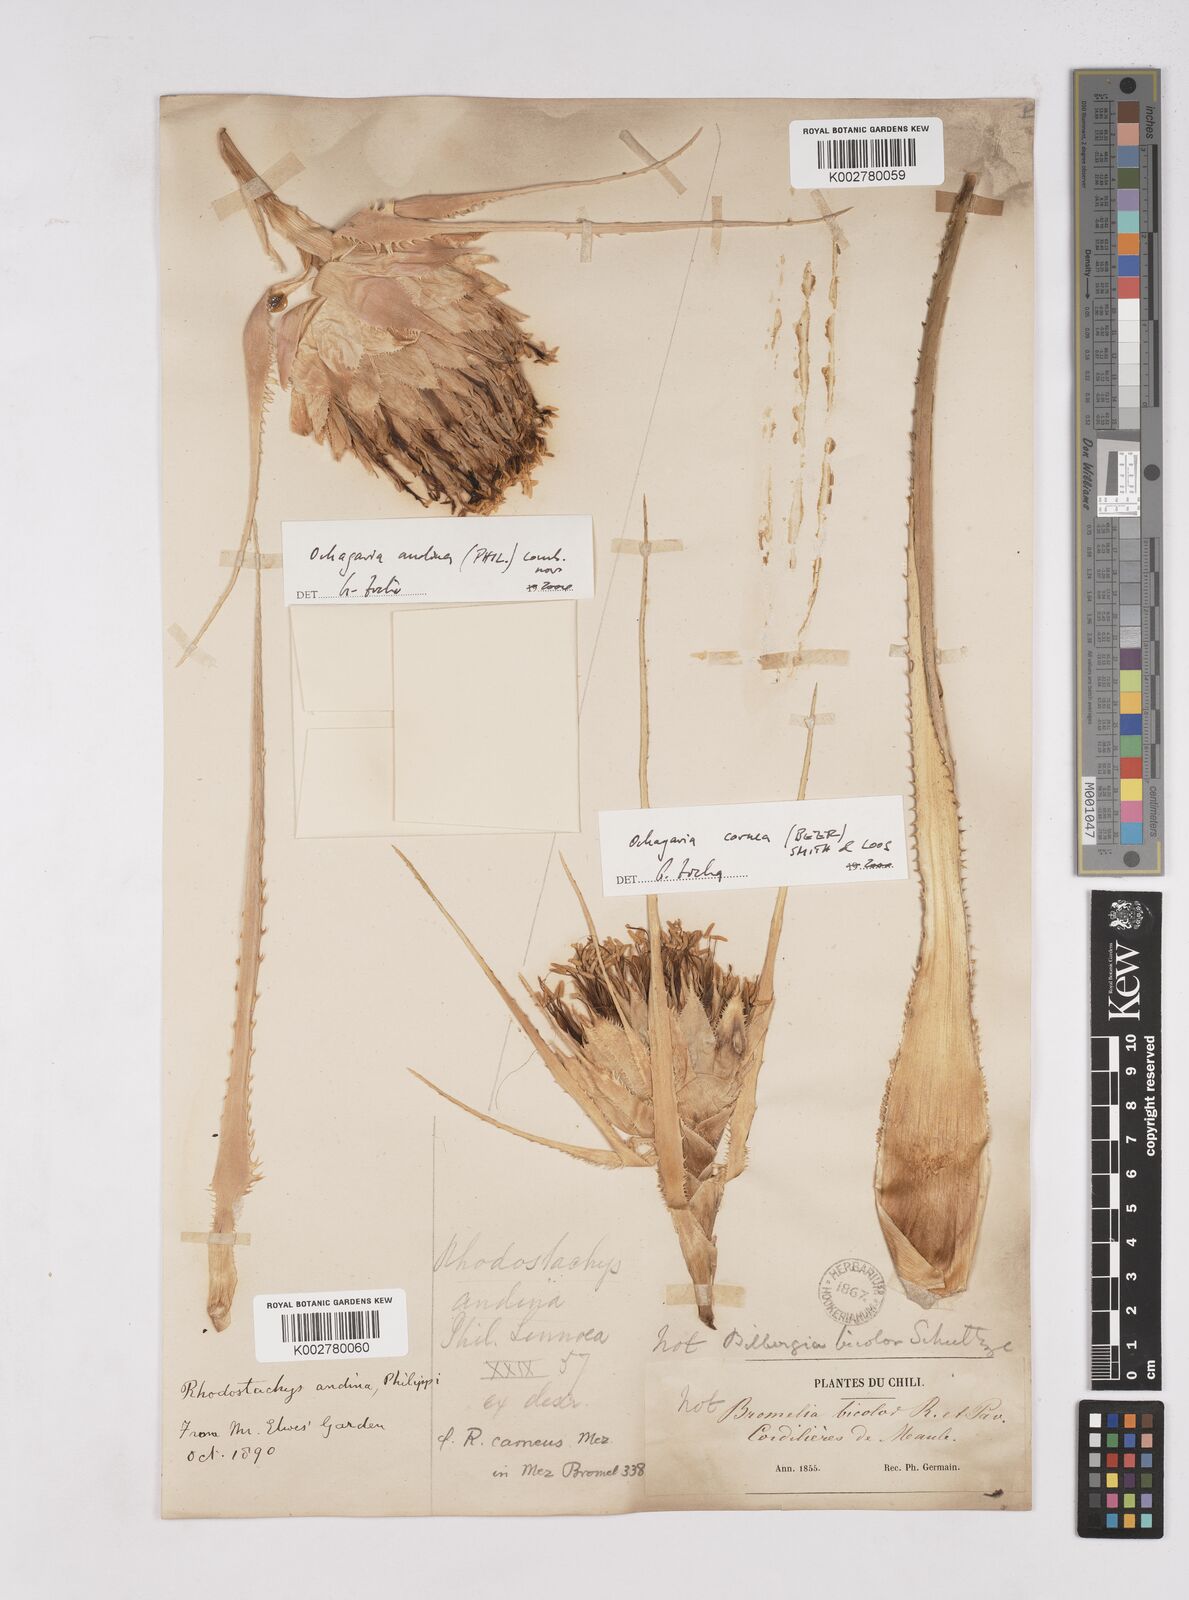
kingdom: Plantae
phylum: Tracheophyta
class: Liliopsida
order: Poales
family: Bromeliaceae
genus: Ochagavia
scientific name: Ochagavia carnea
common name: Tresco rhodostachys
